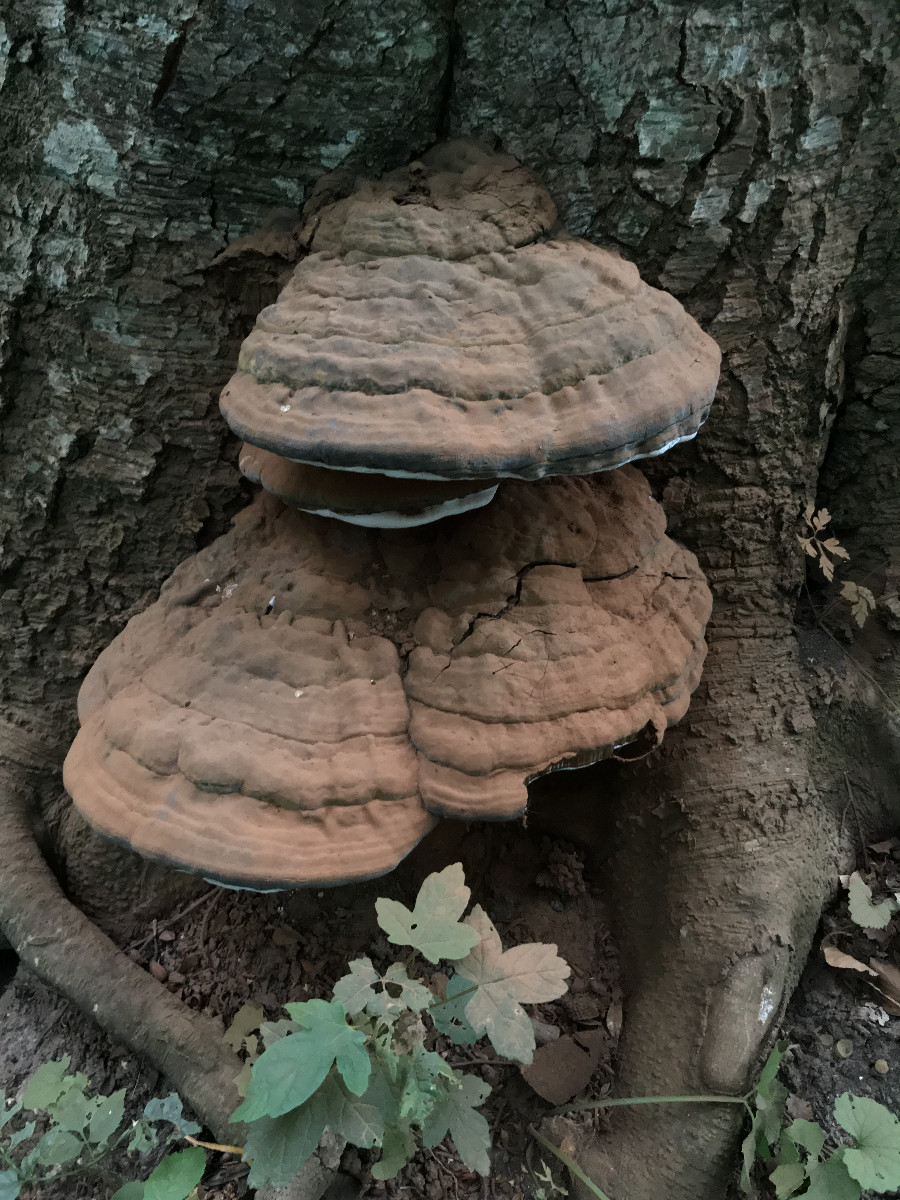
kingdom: Fungi
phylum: Basidiomycota
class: Agaricomycetes
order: Polyporales
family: Polyporaceae
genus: Ganoderma
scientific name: Ganoderma pfeifferi
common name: kobberrød lakporesvamp
